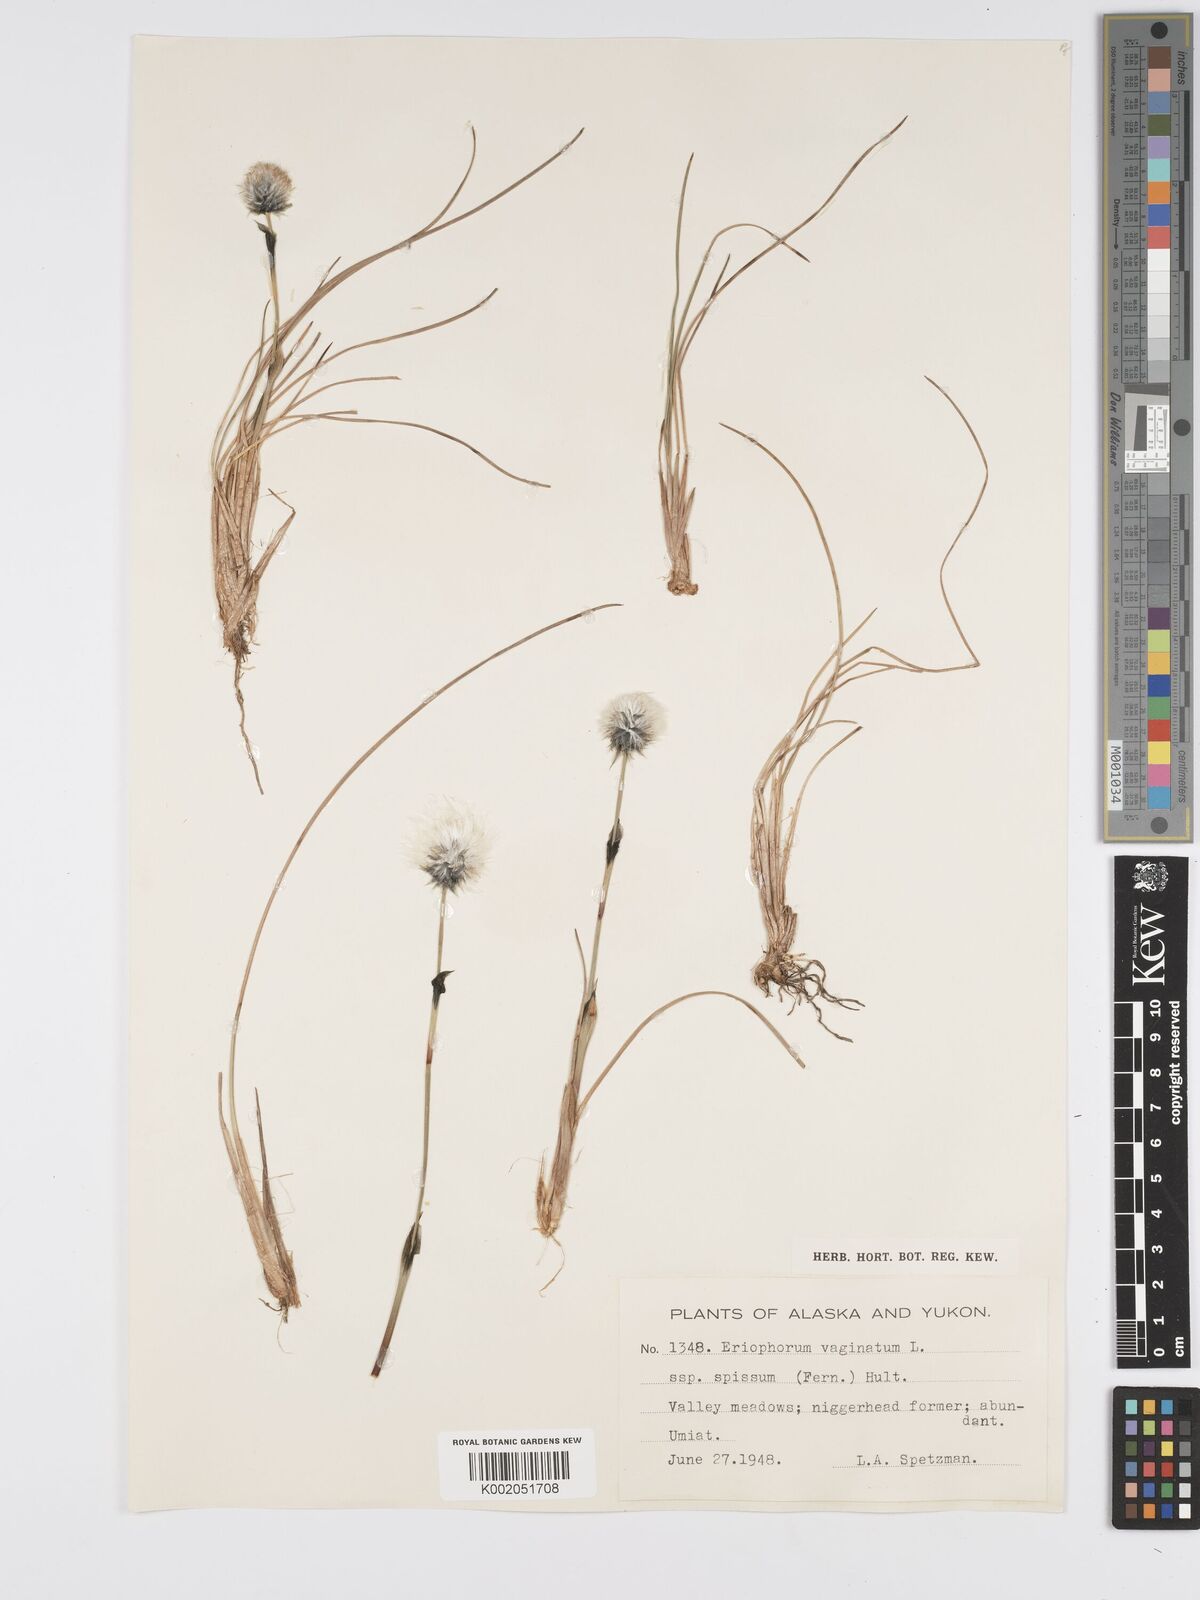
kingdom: Plantae
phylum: Tracheophyta
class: Liliopsida
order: Poales
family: Cyperaceae
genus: Eriophorum
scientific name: Eriophorum vaginatum
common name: Hare's-tail cottongrass
